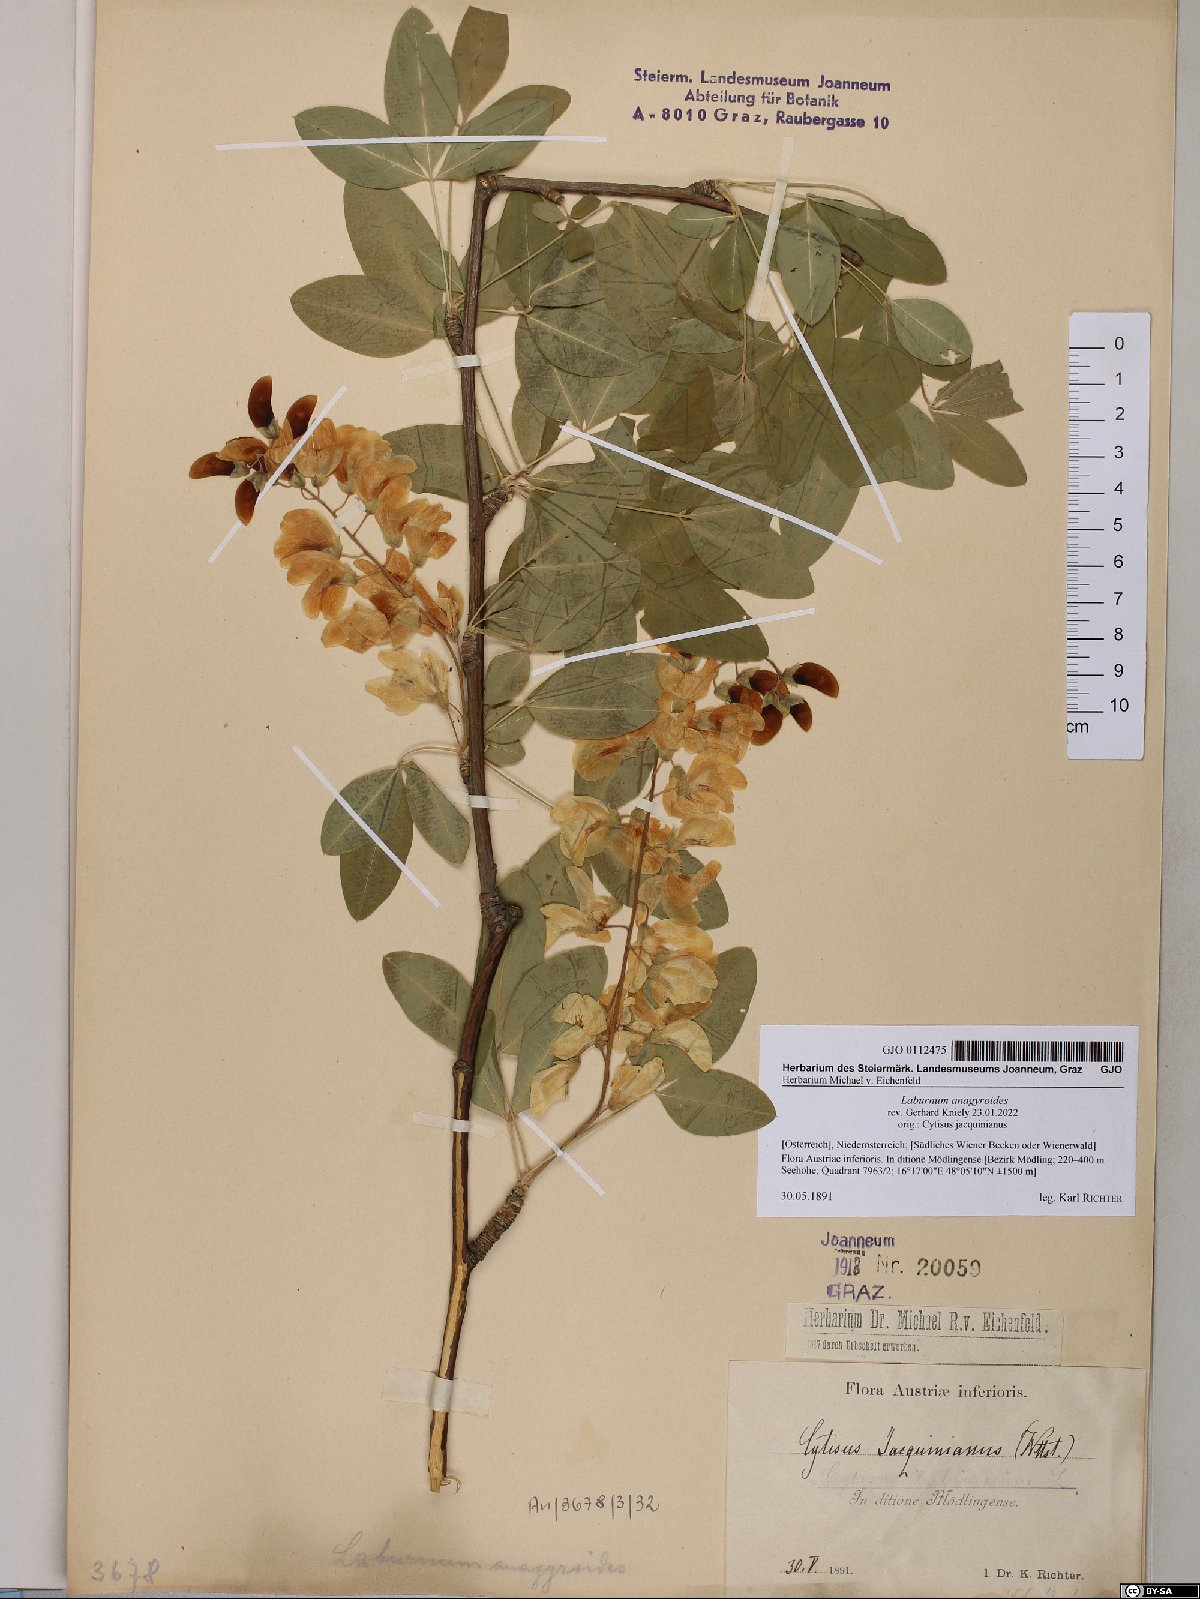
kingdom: Plantae
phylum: Tracheophyta
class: Magnoliopsida
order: Fabales
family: Fabaceae
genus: Laburnum
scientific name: Laburnum anagyroides
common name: Laburnum
